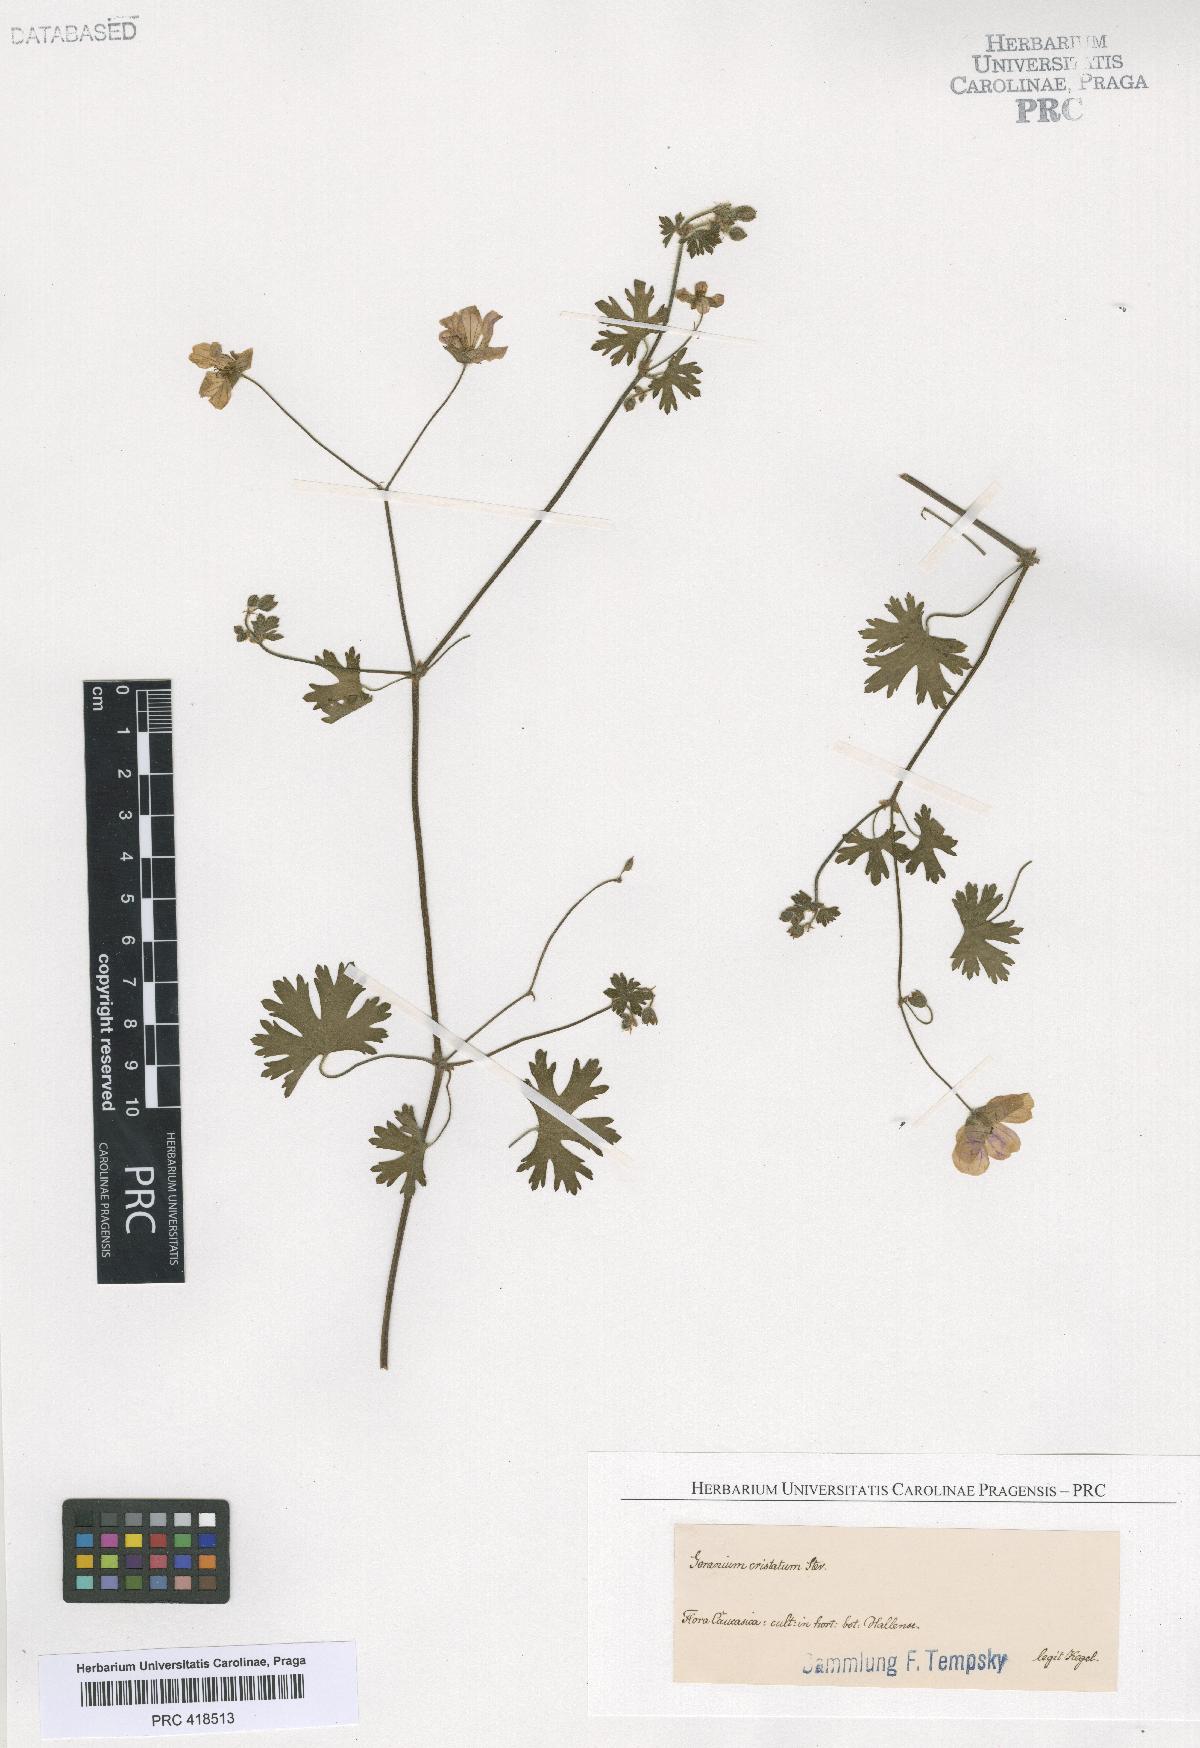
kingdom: Plantae
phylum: Tracheophyta
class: Magnoliopsida
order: Geraniales
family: Geraniaceae
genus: Geranium
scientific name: Geranium
